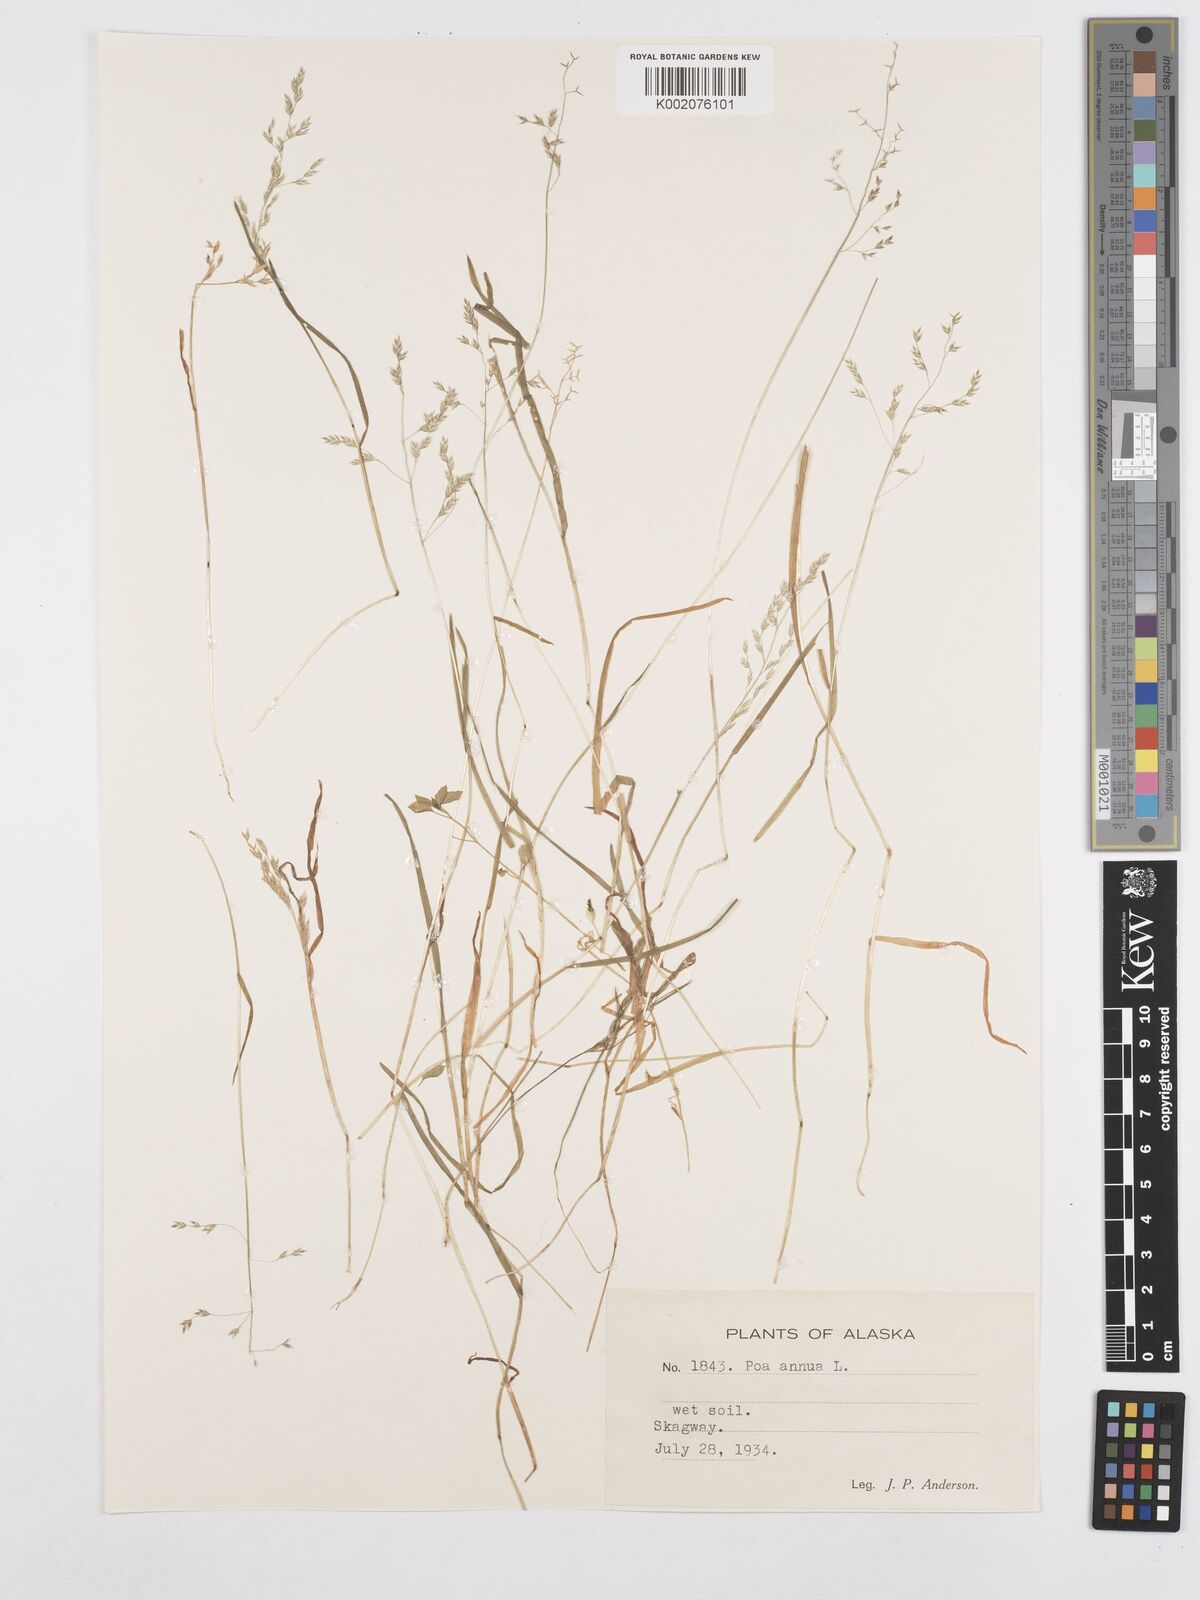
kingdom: Plantae
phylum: Tracheophyta
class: Liliopsida
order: Poales
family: Poaceae
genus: Poa
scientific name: Poa annua
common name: Annual bluegrass
